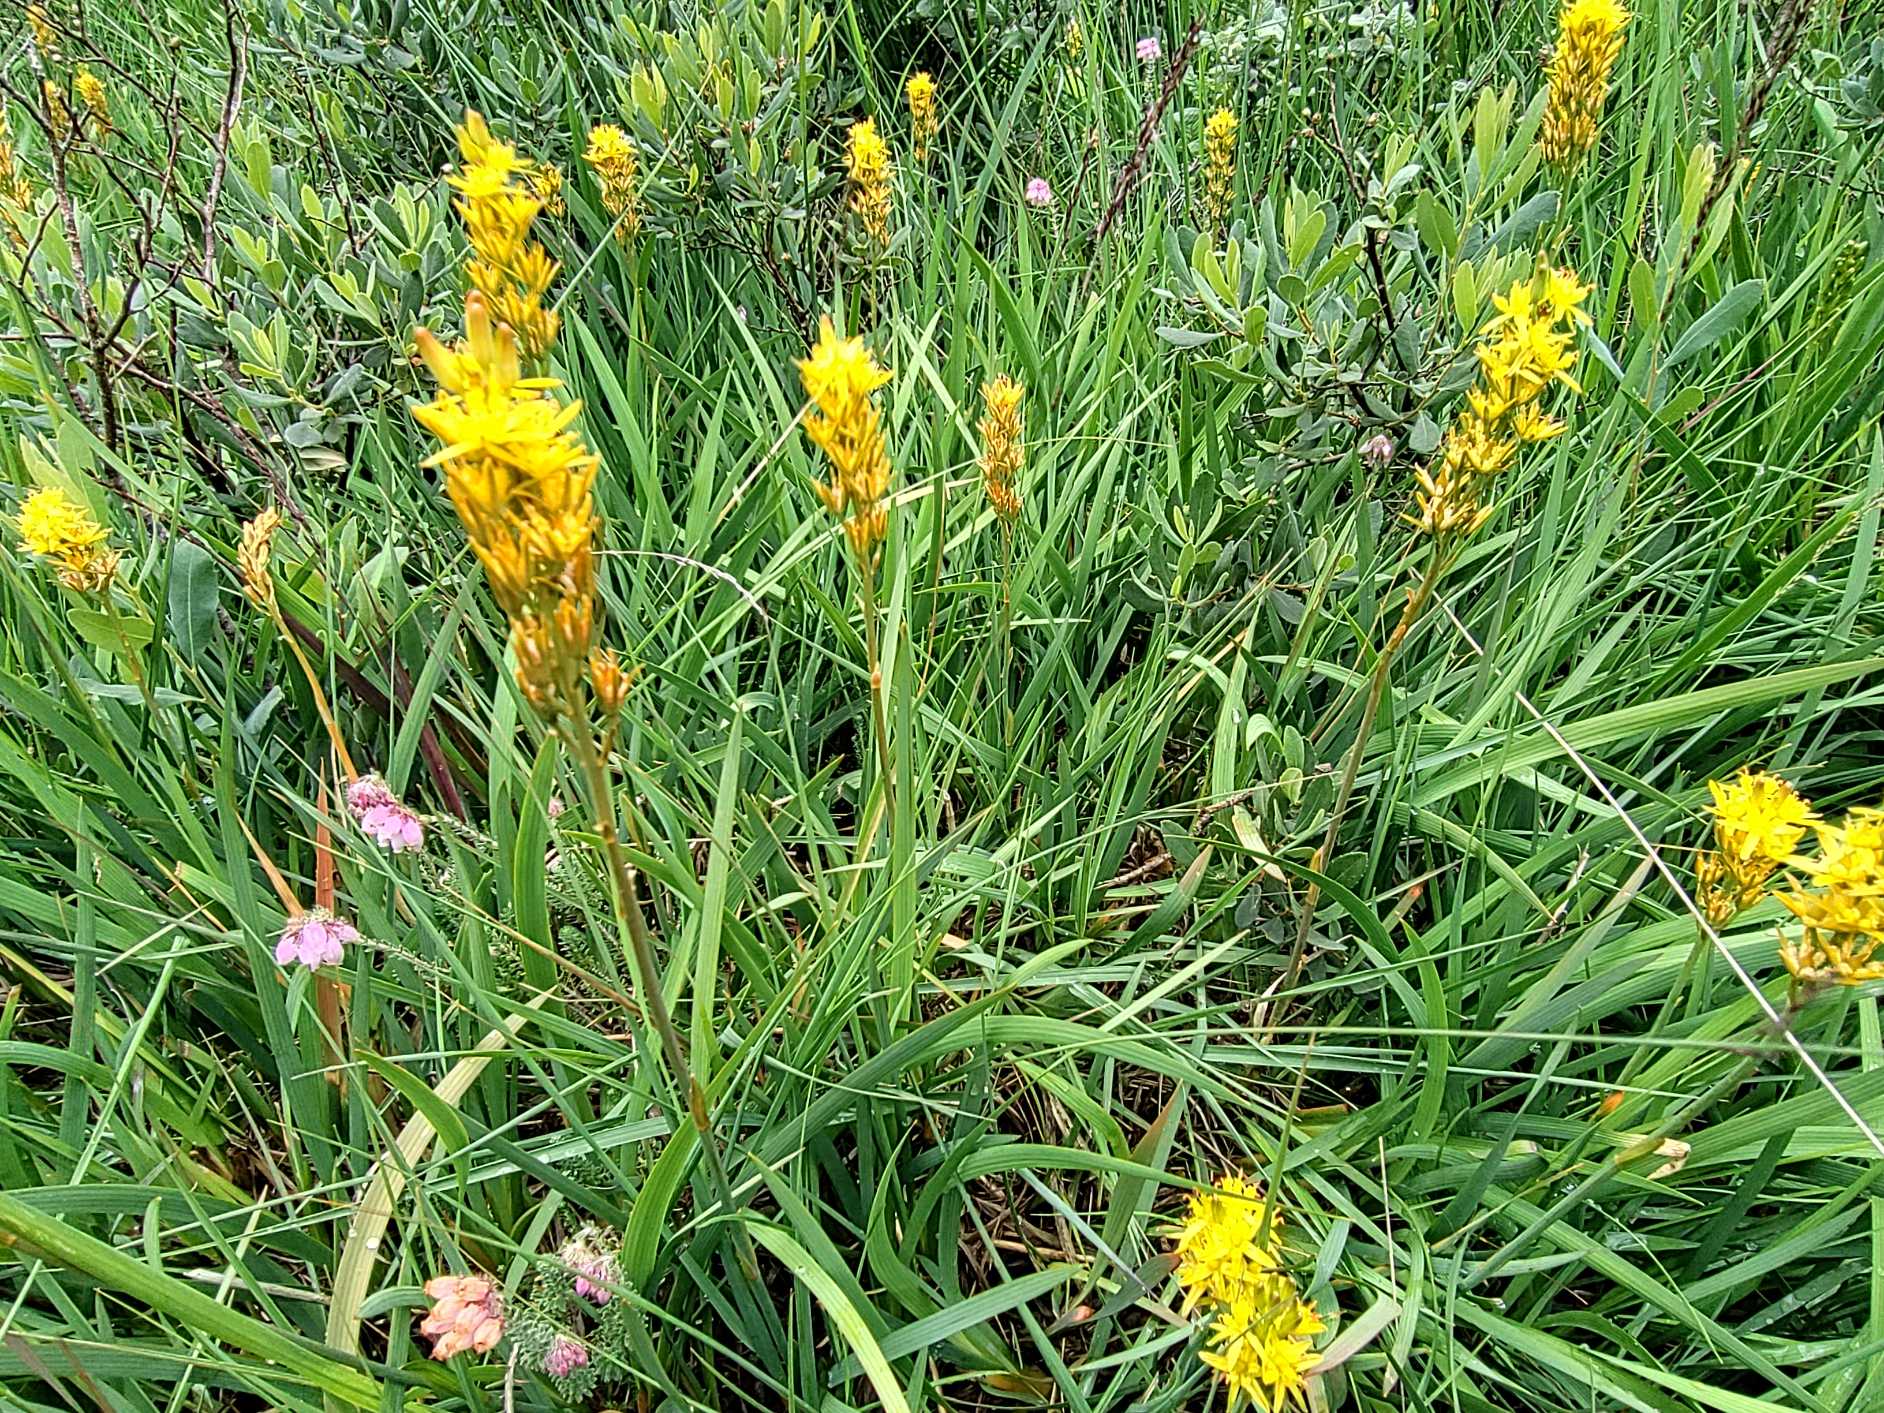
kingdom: Plantae
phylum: Tracheophyta
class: Liliopsida
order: Dioscoreales
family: Nartheciaceae
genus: Narthecium
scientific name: Narthecium ossifragum
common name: Benbræk
